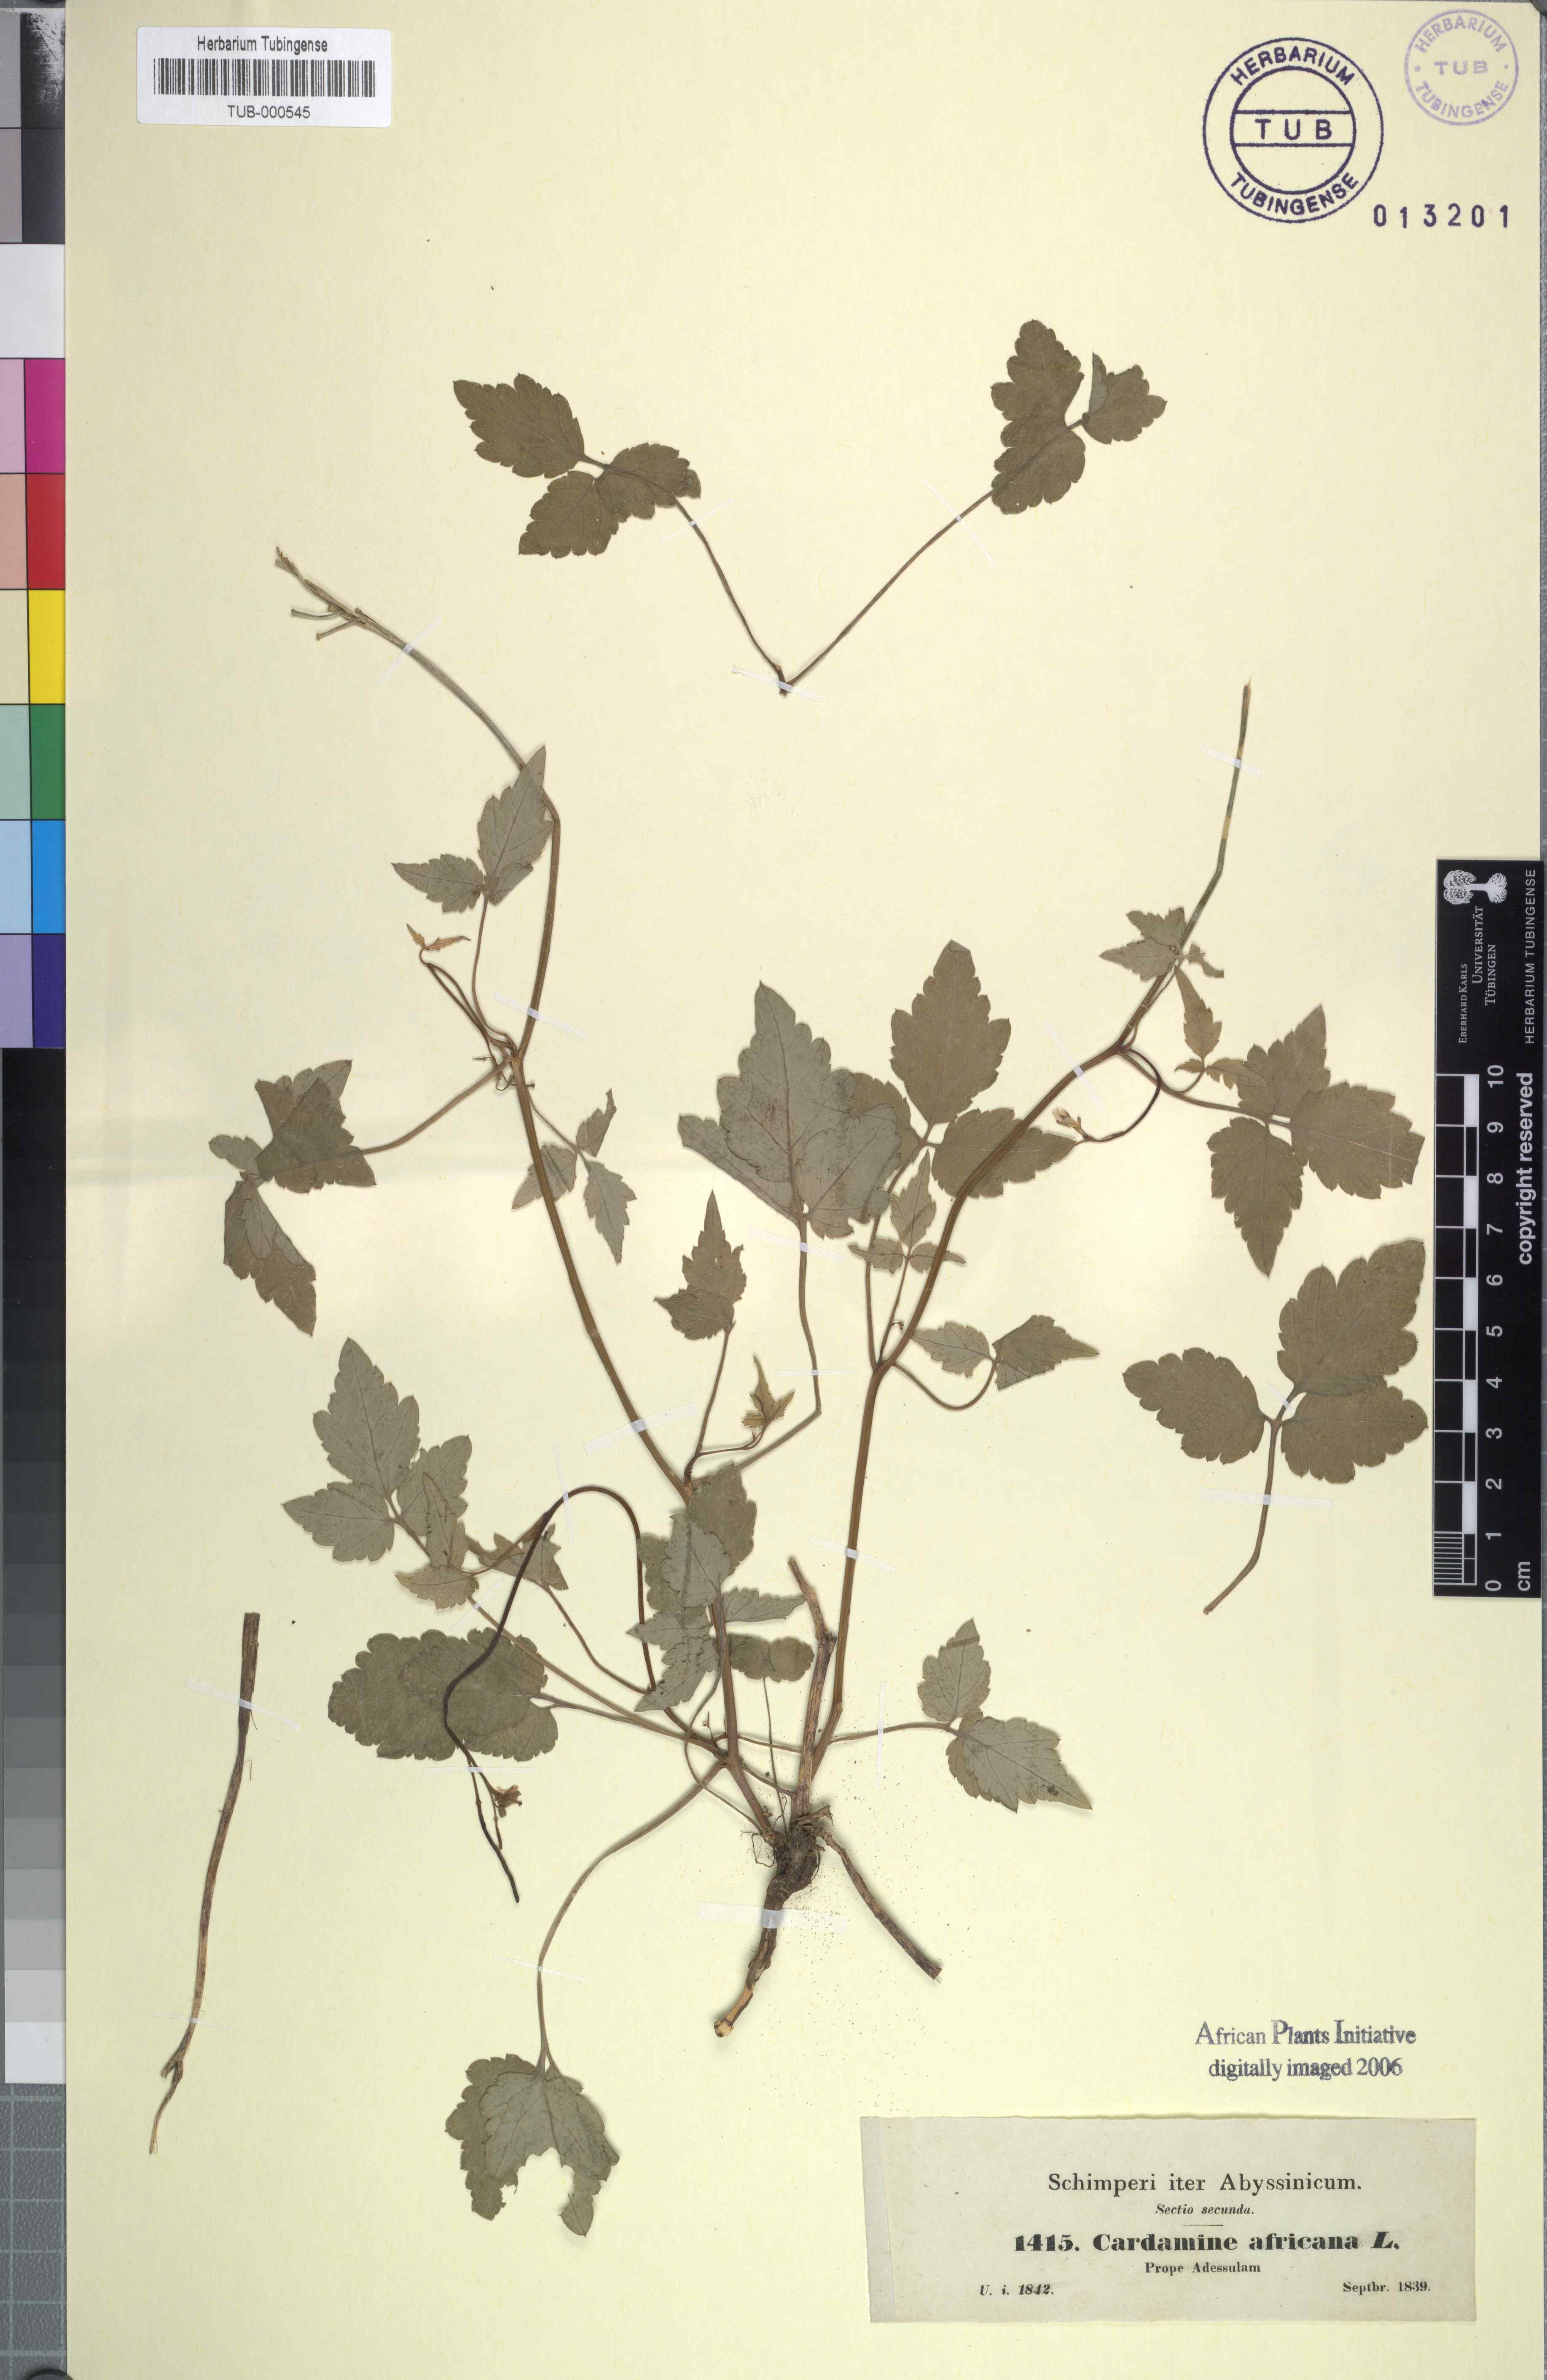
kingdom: Plantae
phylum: Tracheophyta
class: Magnoliopsida
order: Brassicales
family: Brassicaceae
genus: Cardamine
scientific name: Cardamine africana
